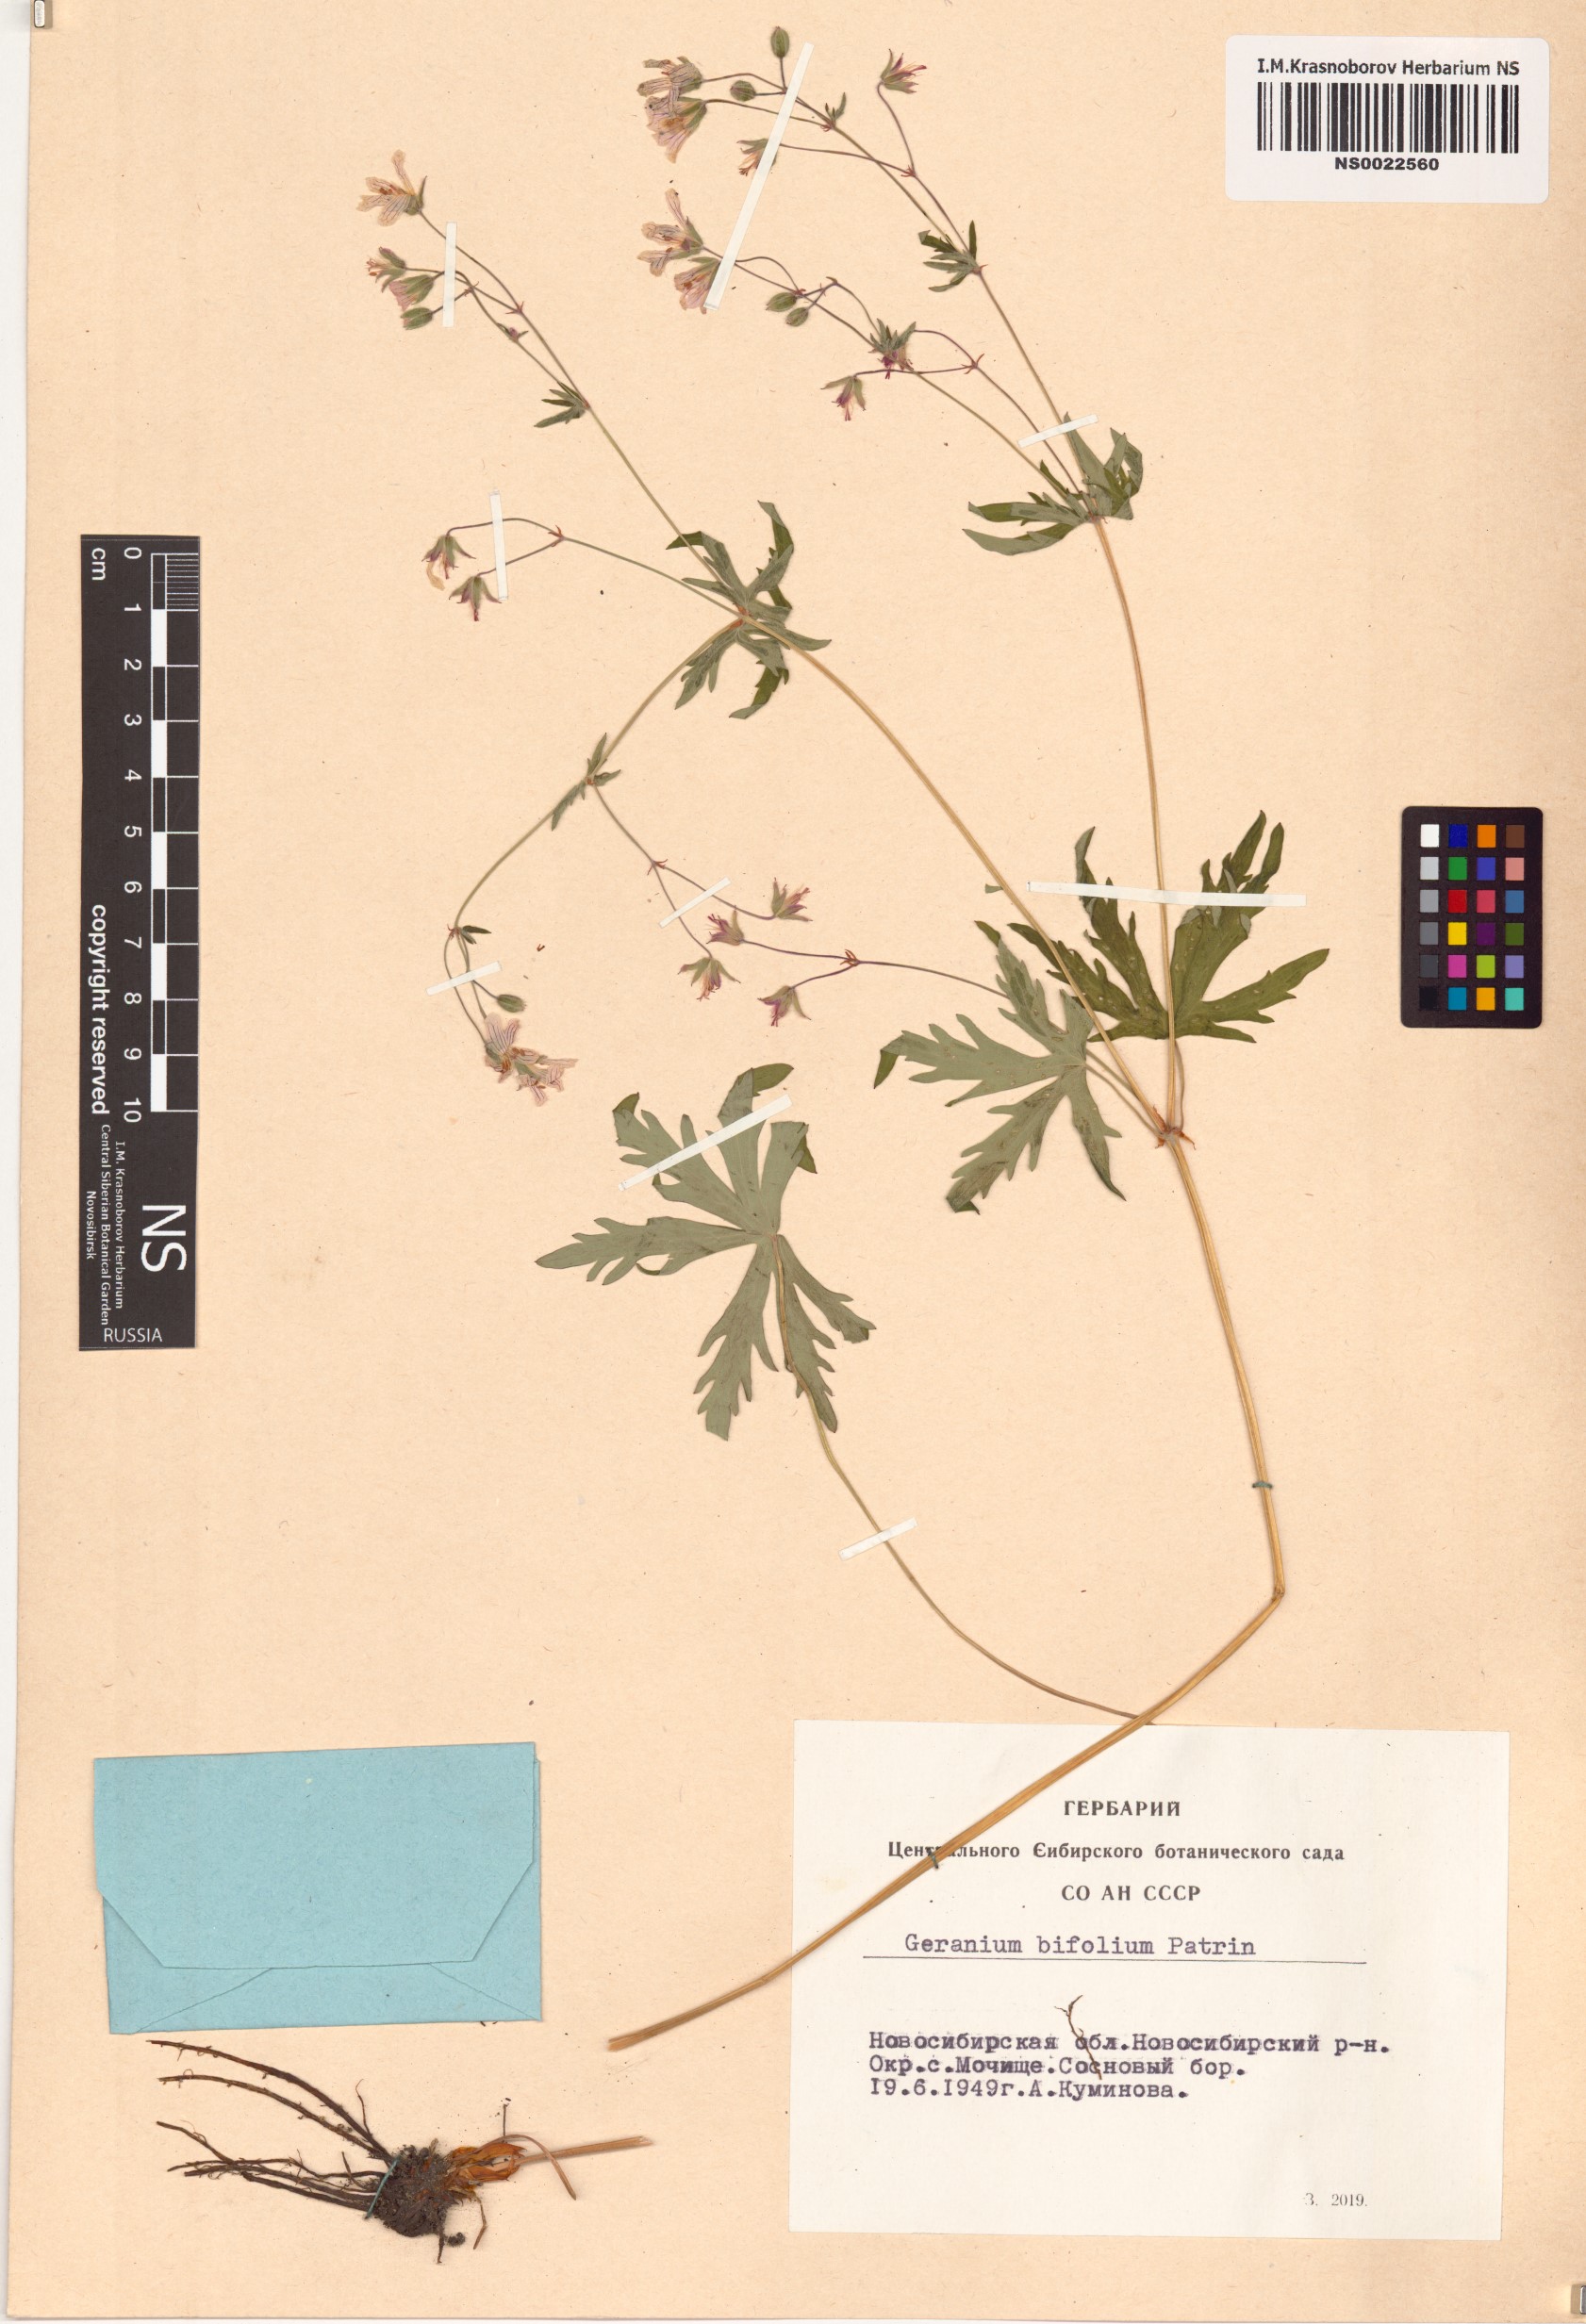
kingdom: Plantae
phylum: Tracheophyta
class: Magnoliopsida
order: Geraniales
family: Geraniaceae
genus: Geranium
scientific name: Geranium pseudosibiricum
